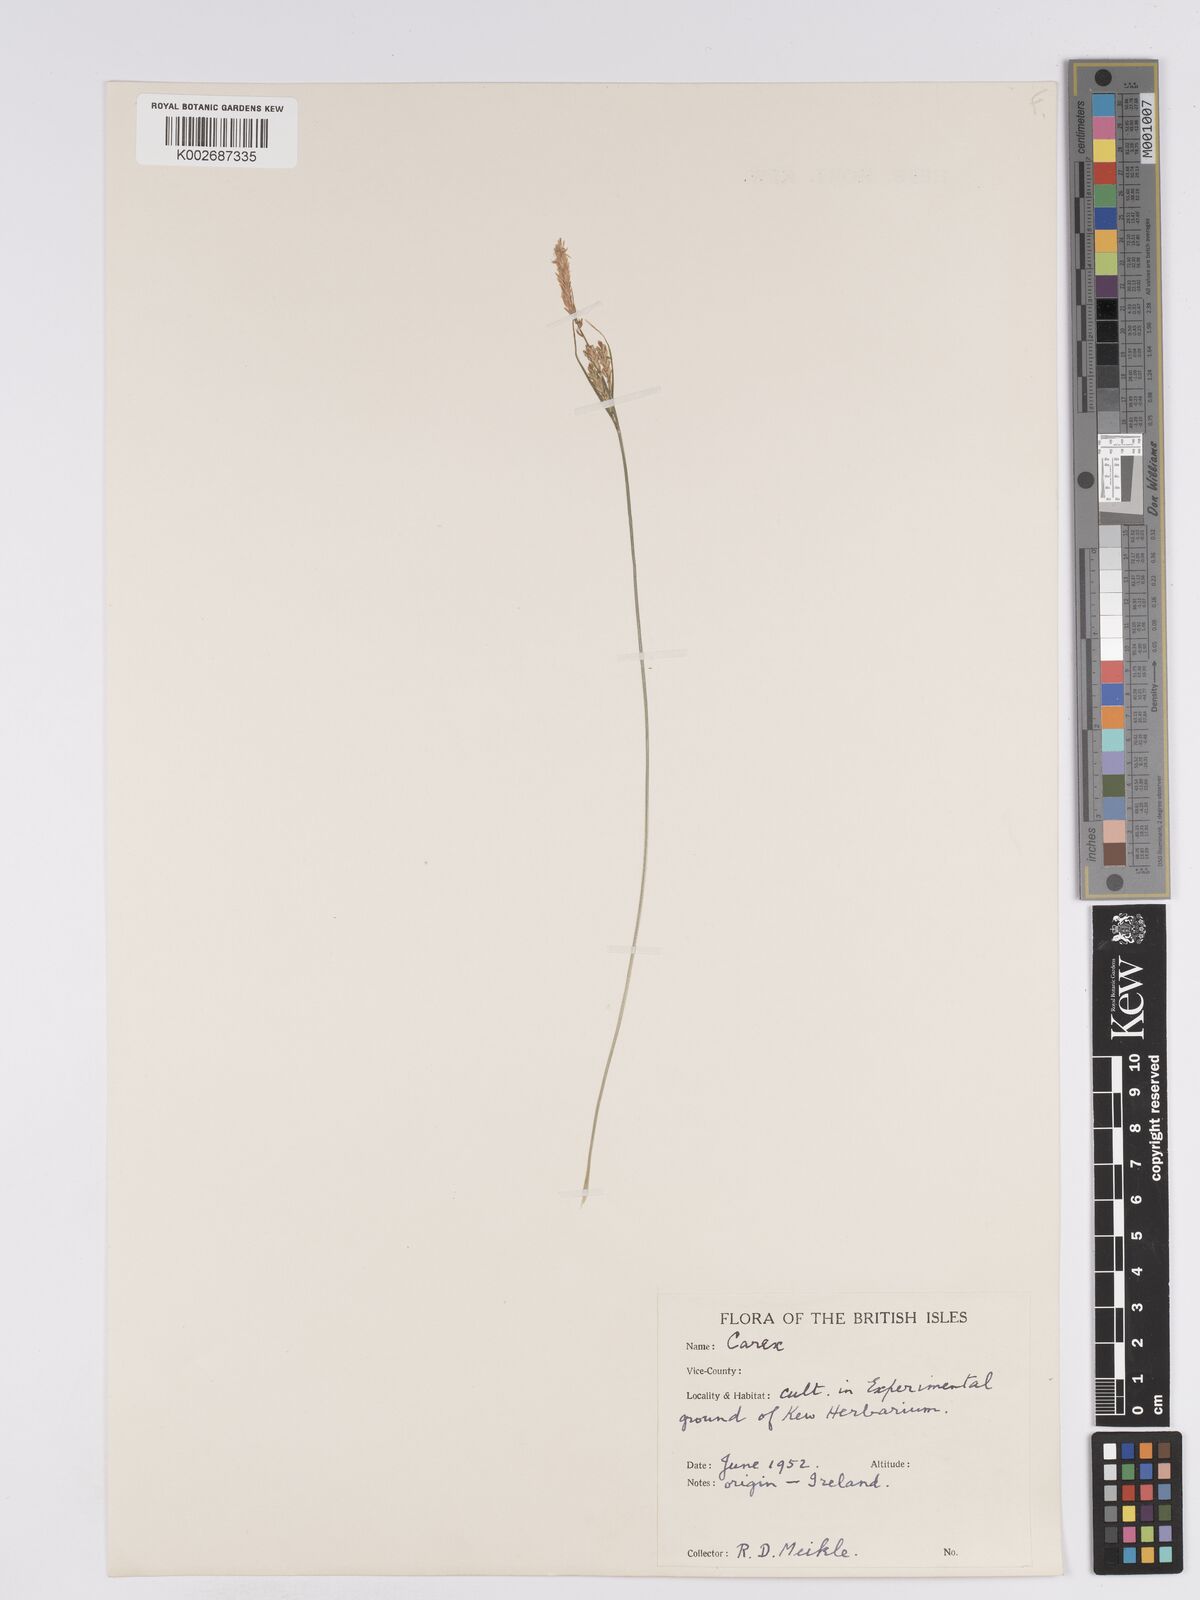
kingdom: Plantae
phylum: Tracheophyta
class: Liliopsida
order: Poales
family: Cyperaceae
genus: Carex
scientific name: Carex nigra
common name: Common sedge
